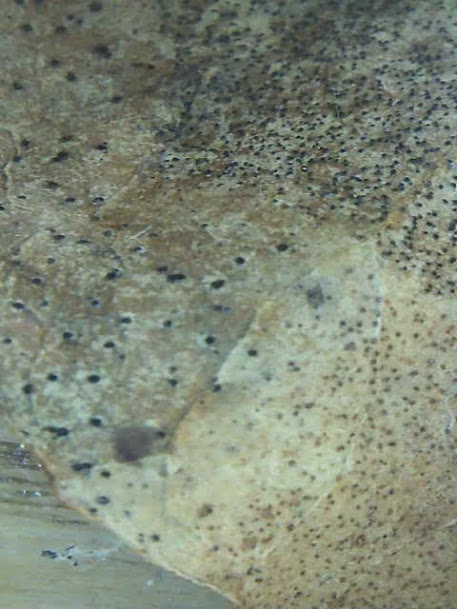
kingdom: Fungi
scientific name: Fungi
